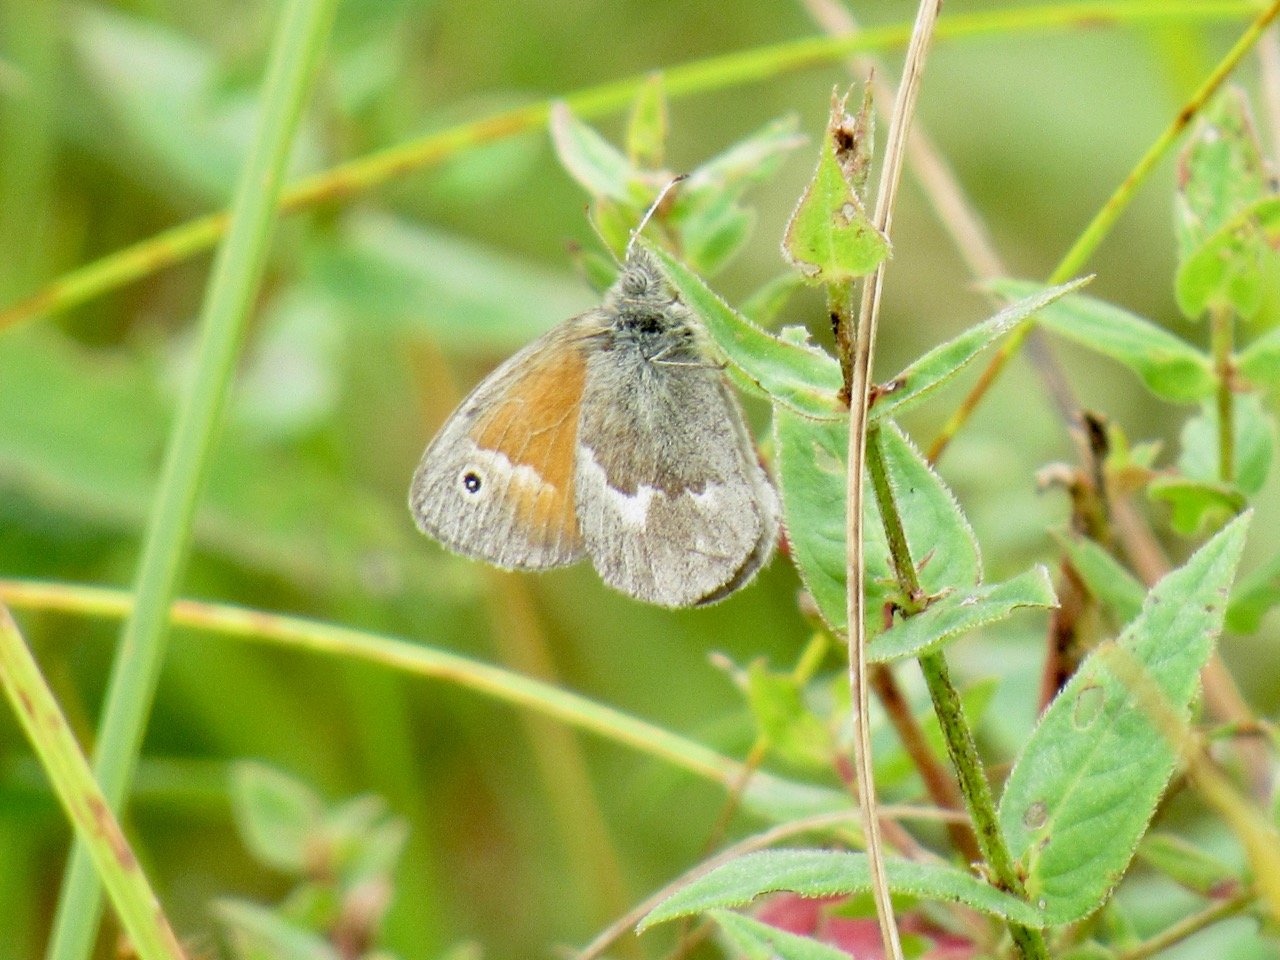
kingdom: Animalia
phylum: Arthropoda
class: Insecta
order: Lepidoptera
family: Nymphalidae
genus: Coenonympha
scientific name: Coenonympha tullia
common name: Large Heath
